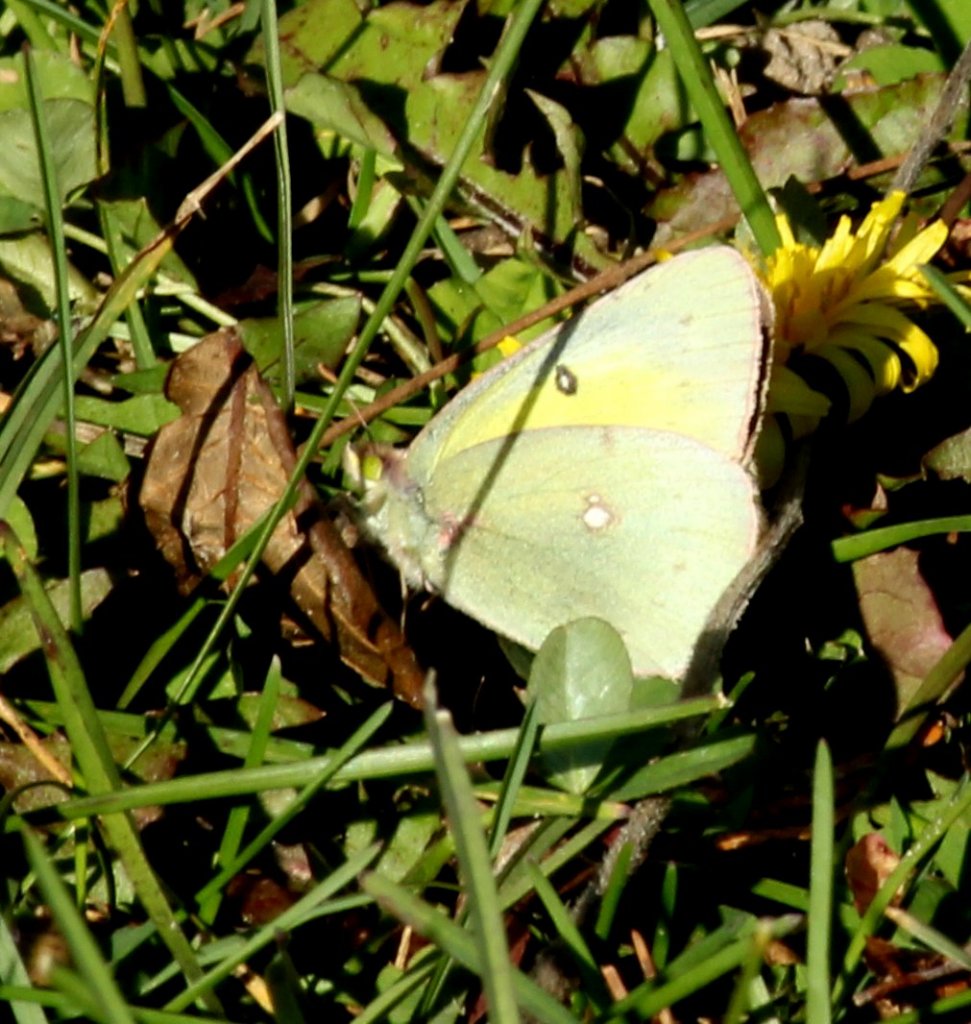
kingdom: Animalia
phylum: Arthropoda
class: Insecta
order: Lepidoptera
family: Pieridae
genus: Colias
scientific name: Colias philodice
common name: Clouded Sulphur
